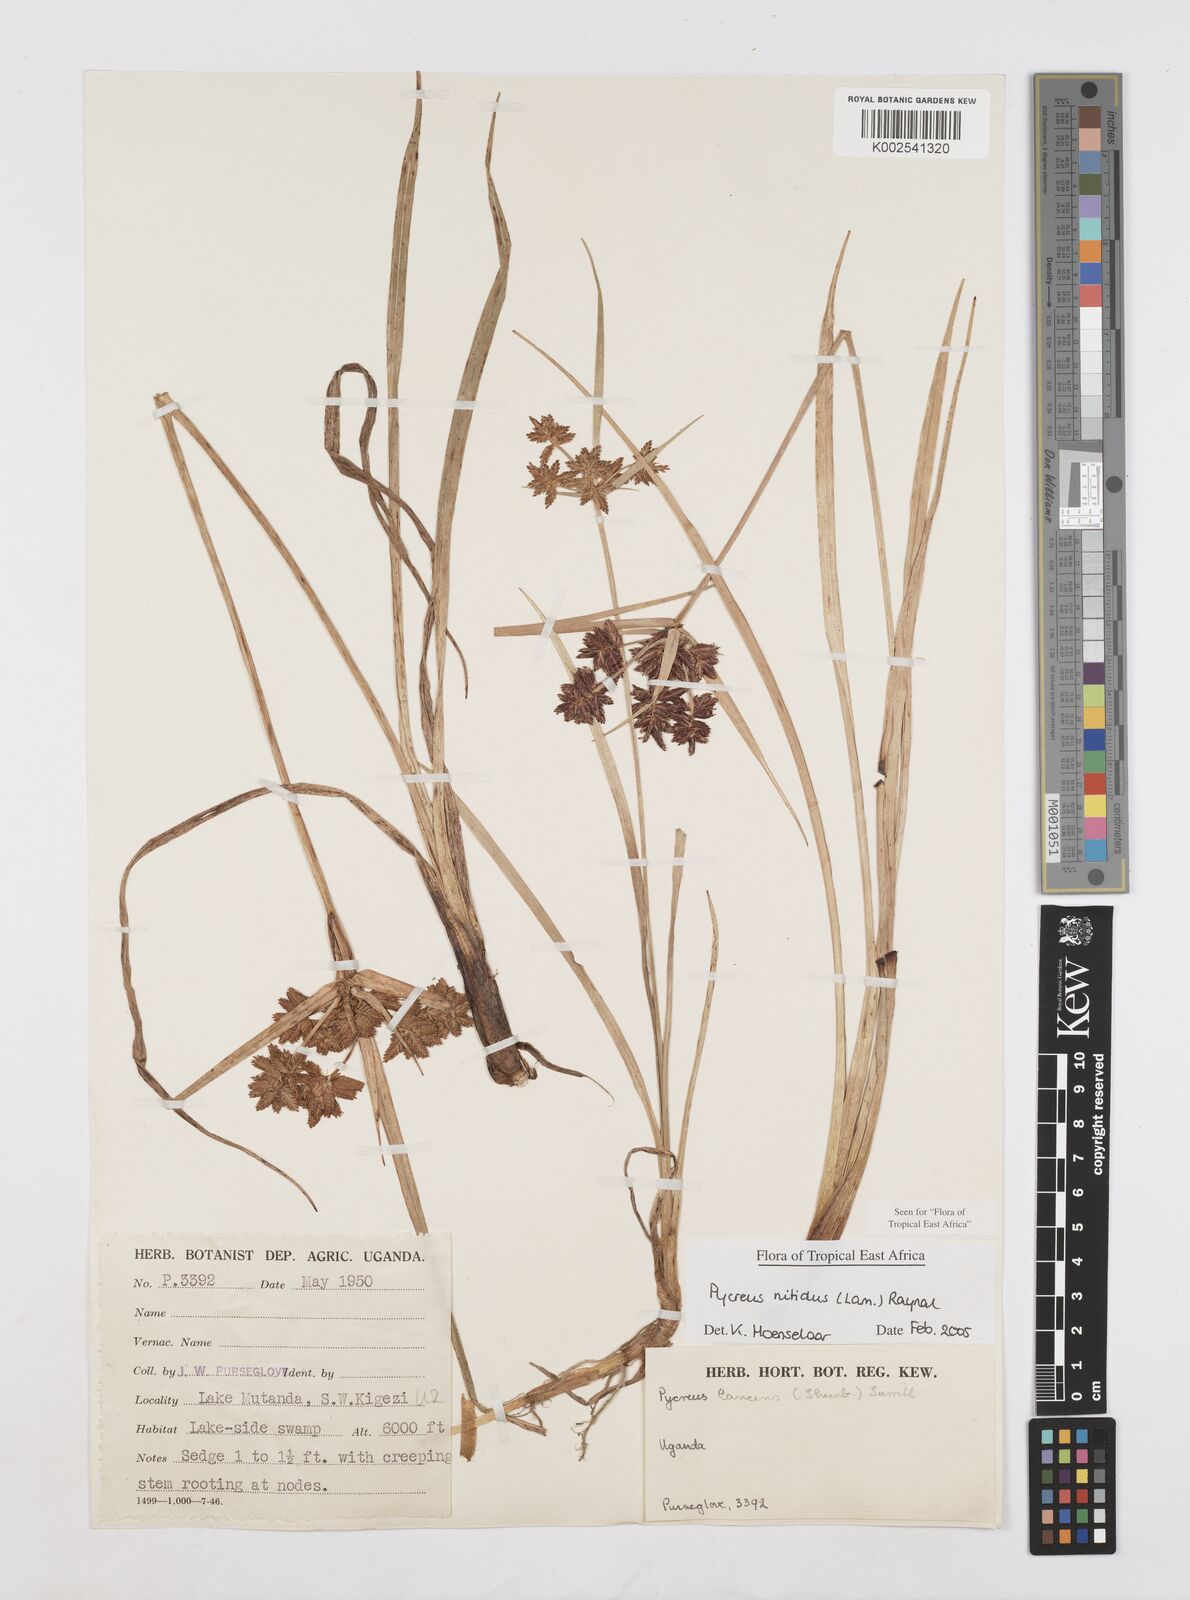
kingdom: Plantae
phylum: Tracheophyta
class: Liliopsida
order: Poales
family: Cyperaceae
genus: Cyperus
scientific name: Cyperus nitidus
